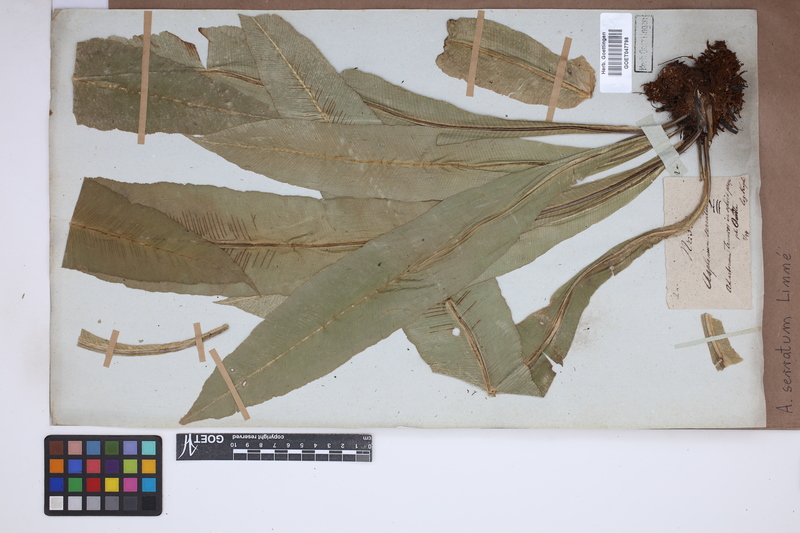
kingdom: Plantae
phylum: Tracheophyta
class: Polypodiopsida
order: Polypodiales
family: Aspleniaceae
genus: Asplenium
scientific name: Asplenium serratum
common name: Wild birdnest fern
